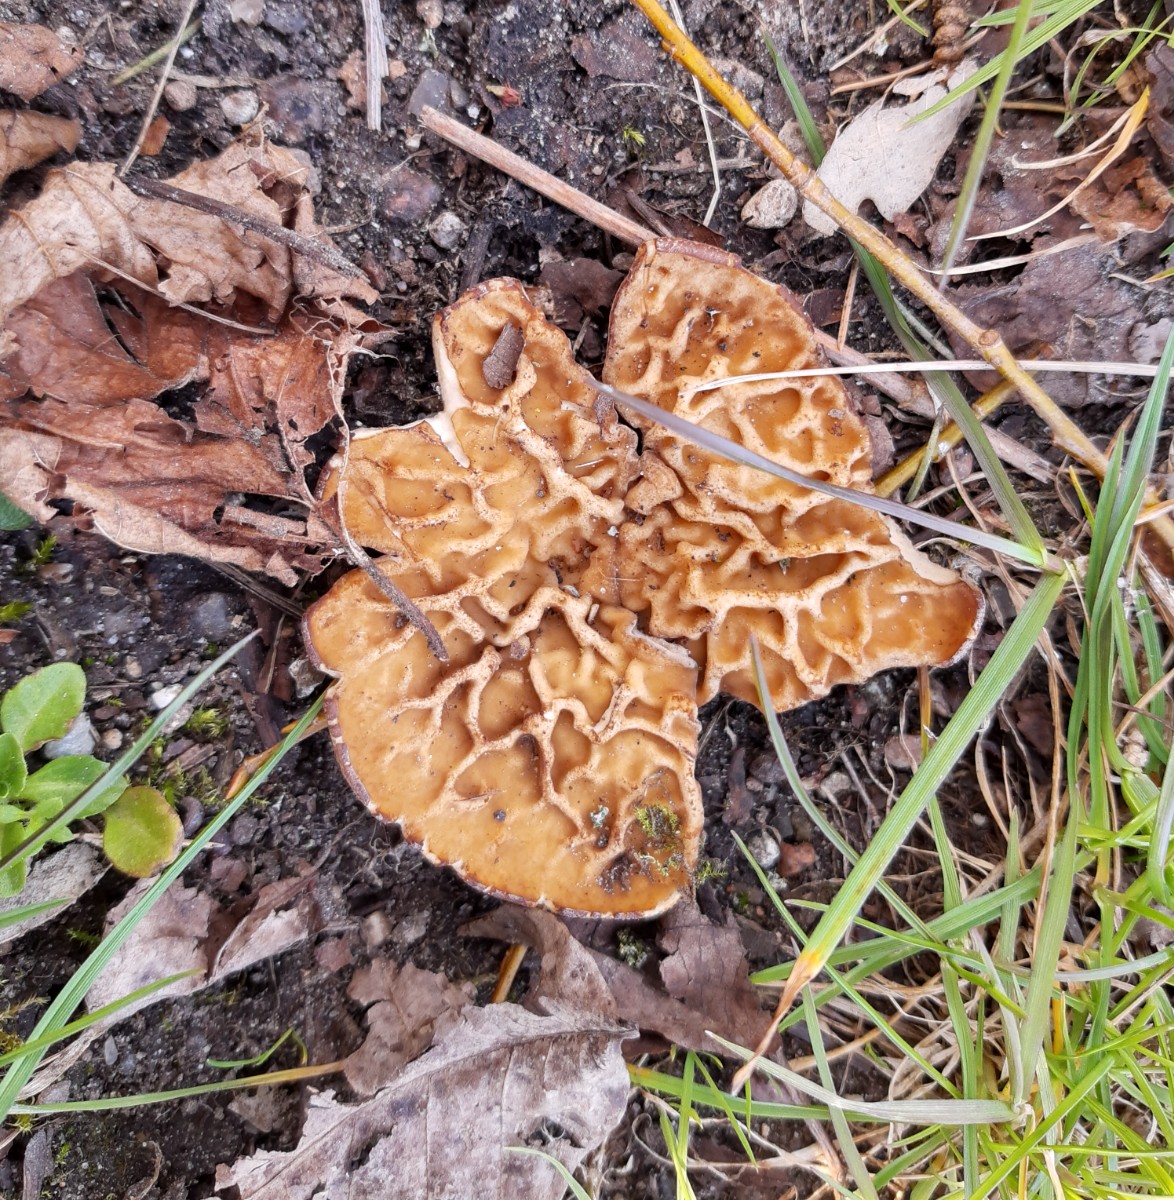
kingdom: Fungi
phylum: Ascomycota
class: Pezizomycetes
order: Pezizales
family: Morchellaceae
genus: Disciotis
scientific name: Disciotis venosa
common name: klor-bægermorkel
